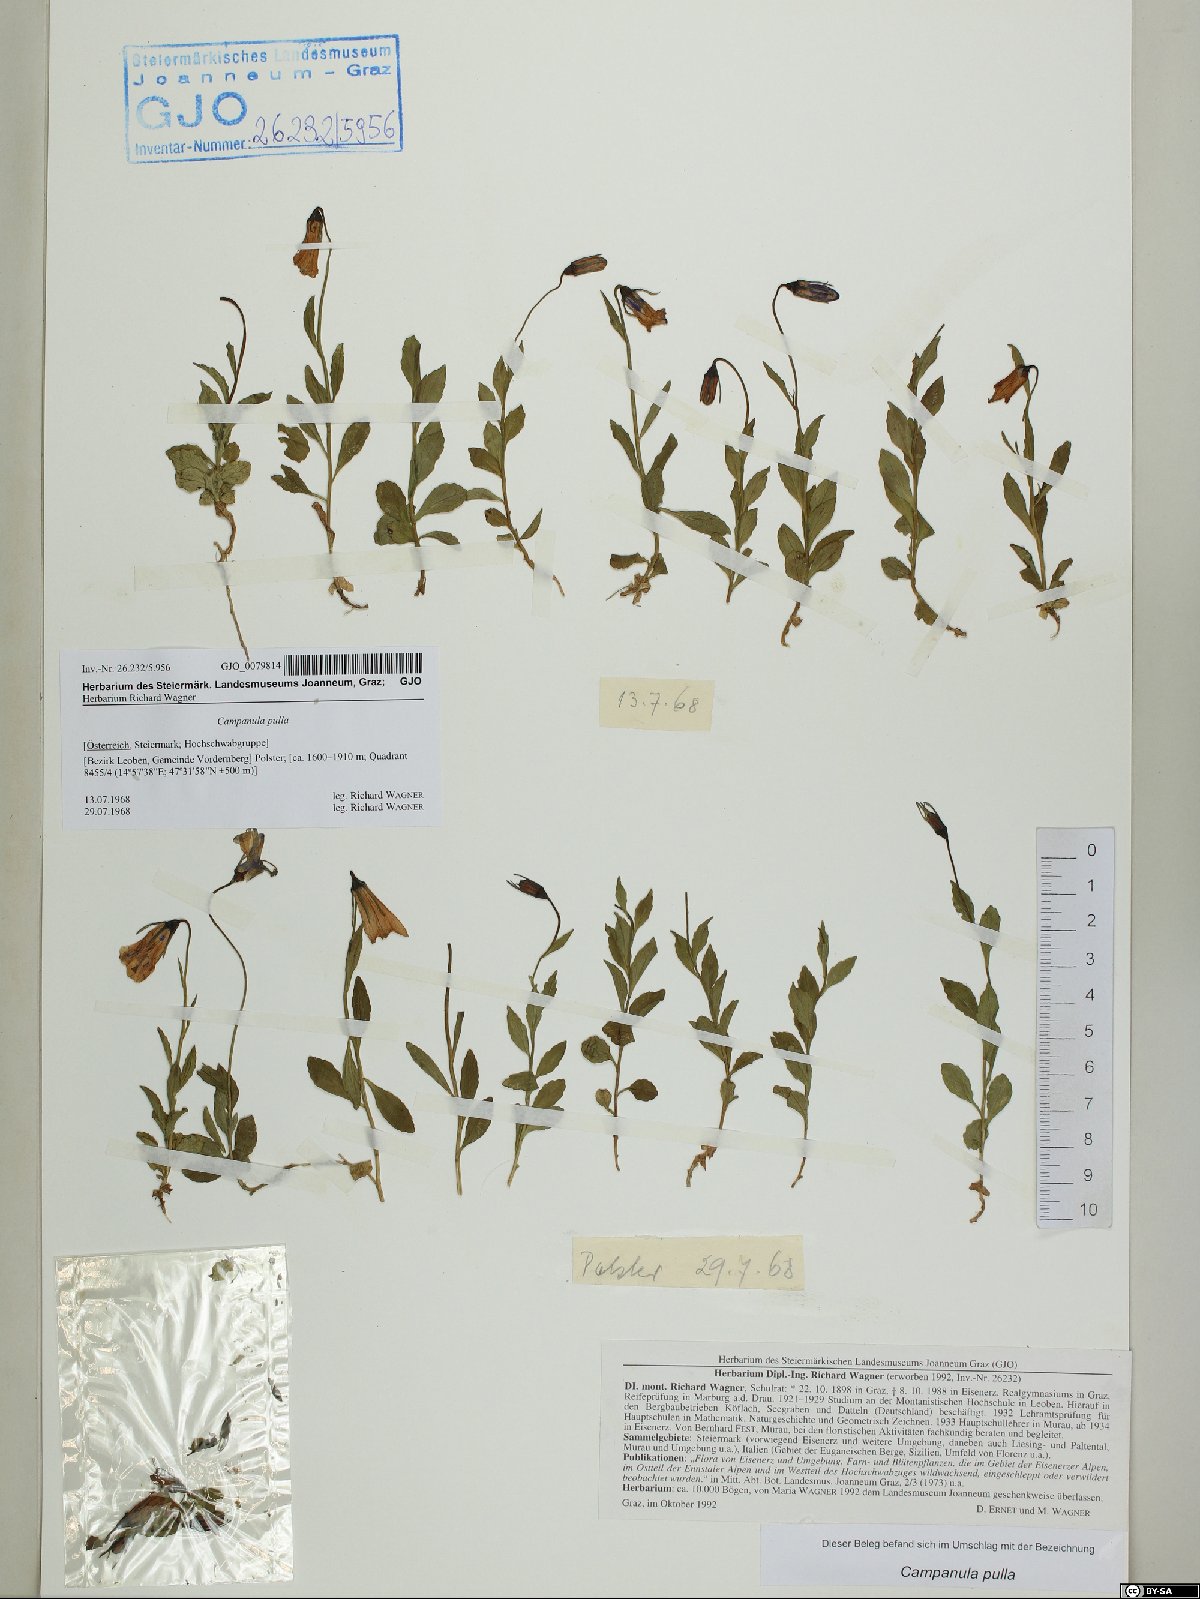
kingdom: Plantae
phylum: Tracheophyta
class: Magnoliopsida
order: Asterales
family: Campanulaceae
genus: Campanula
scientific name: Campanula pulla
